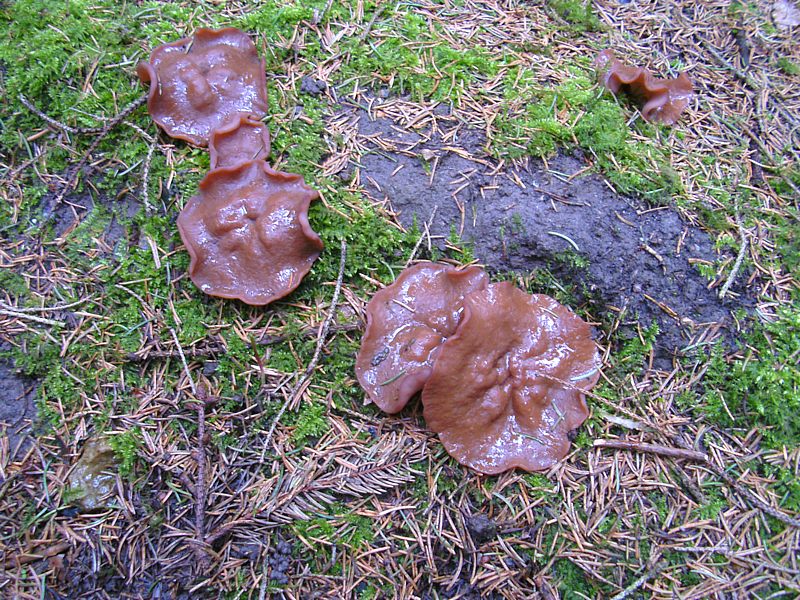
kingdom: Fungi
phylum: Ascomycota
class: Pezizomycetes
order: Pezizales
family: Discinaceae
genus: Discina
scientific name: Discina ancilis
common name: udbredt stenmorkel
